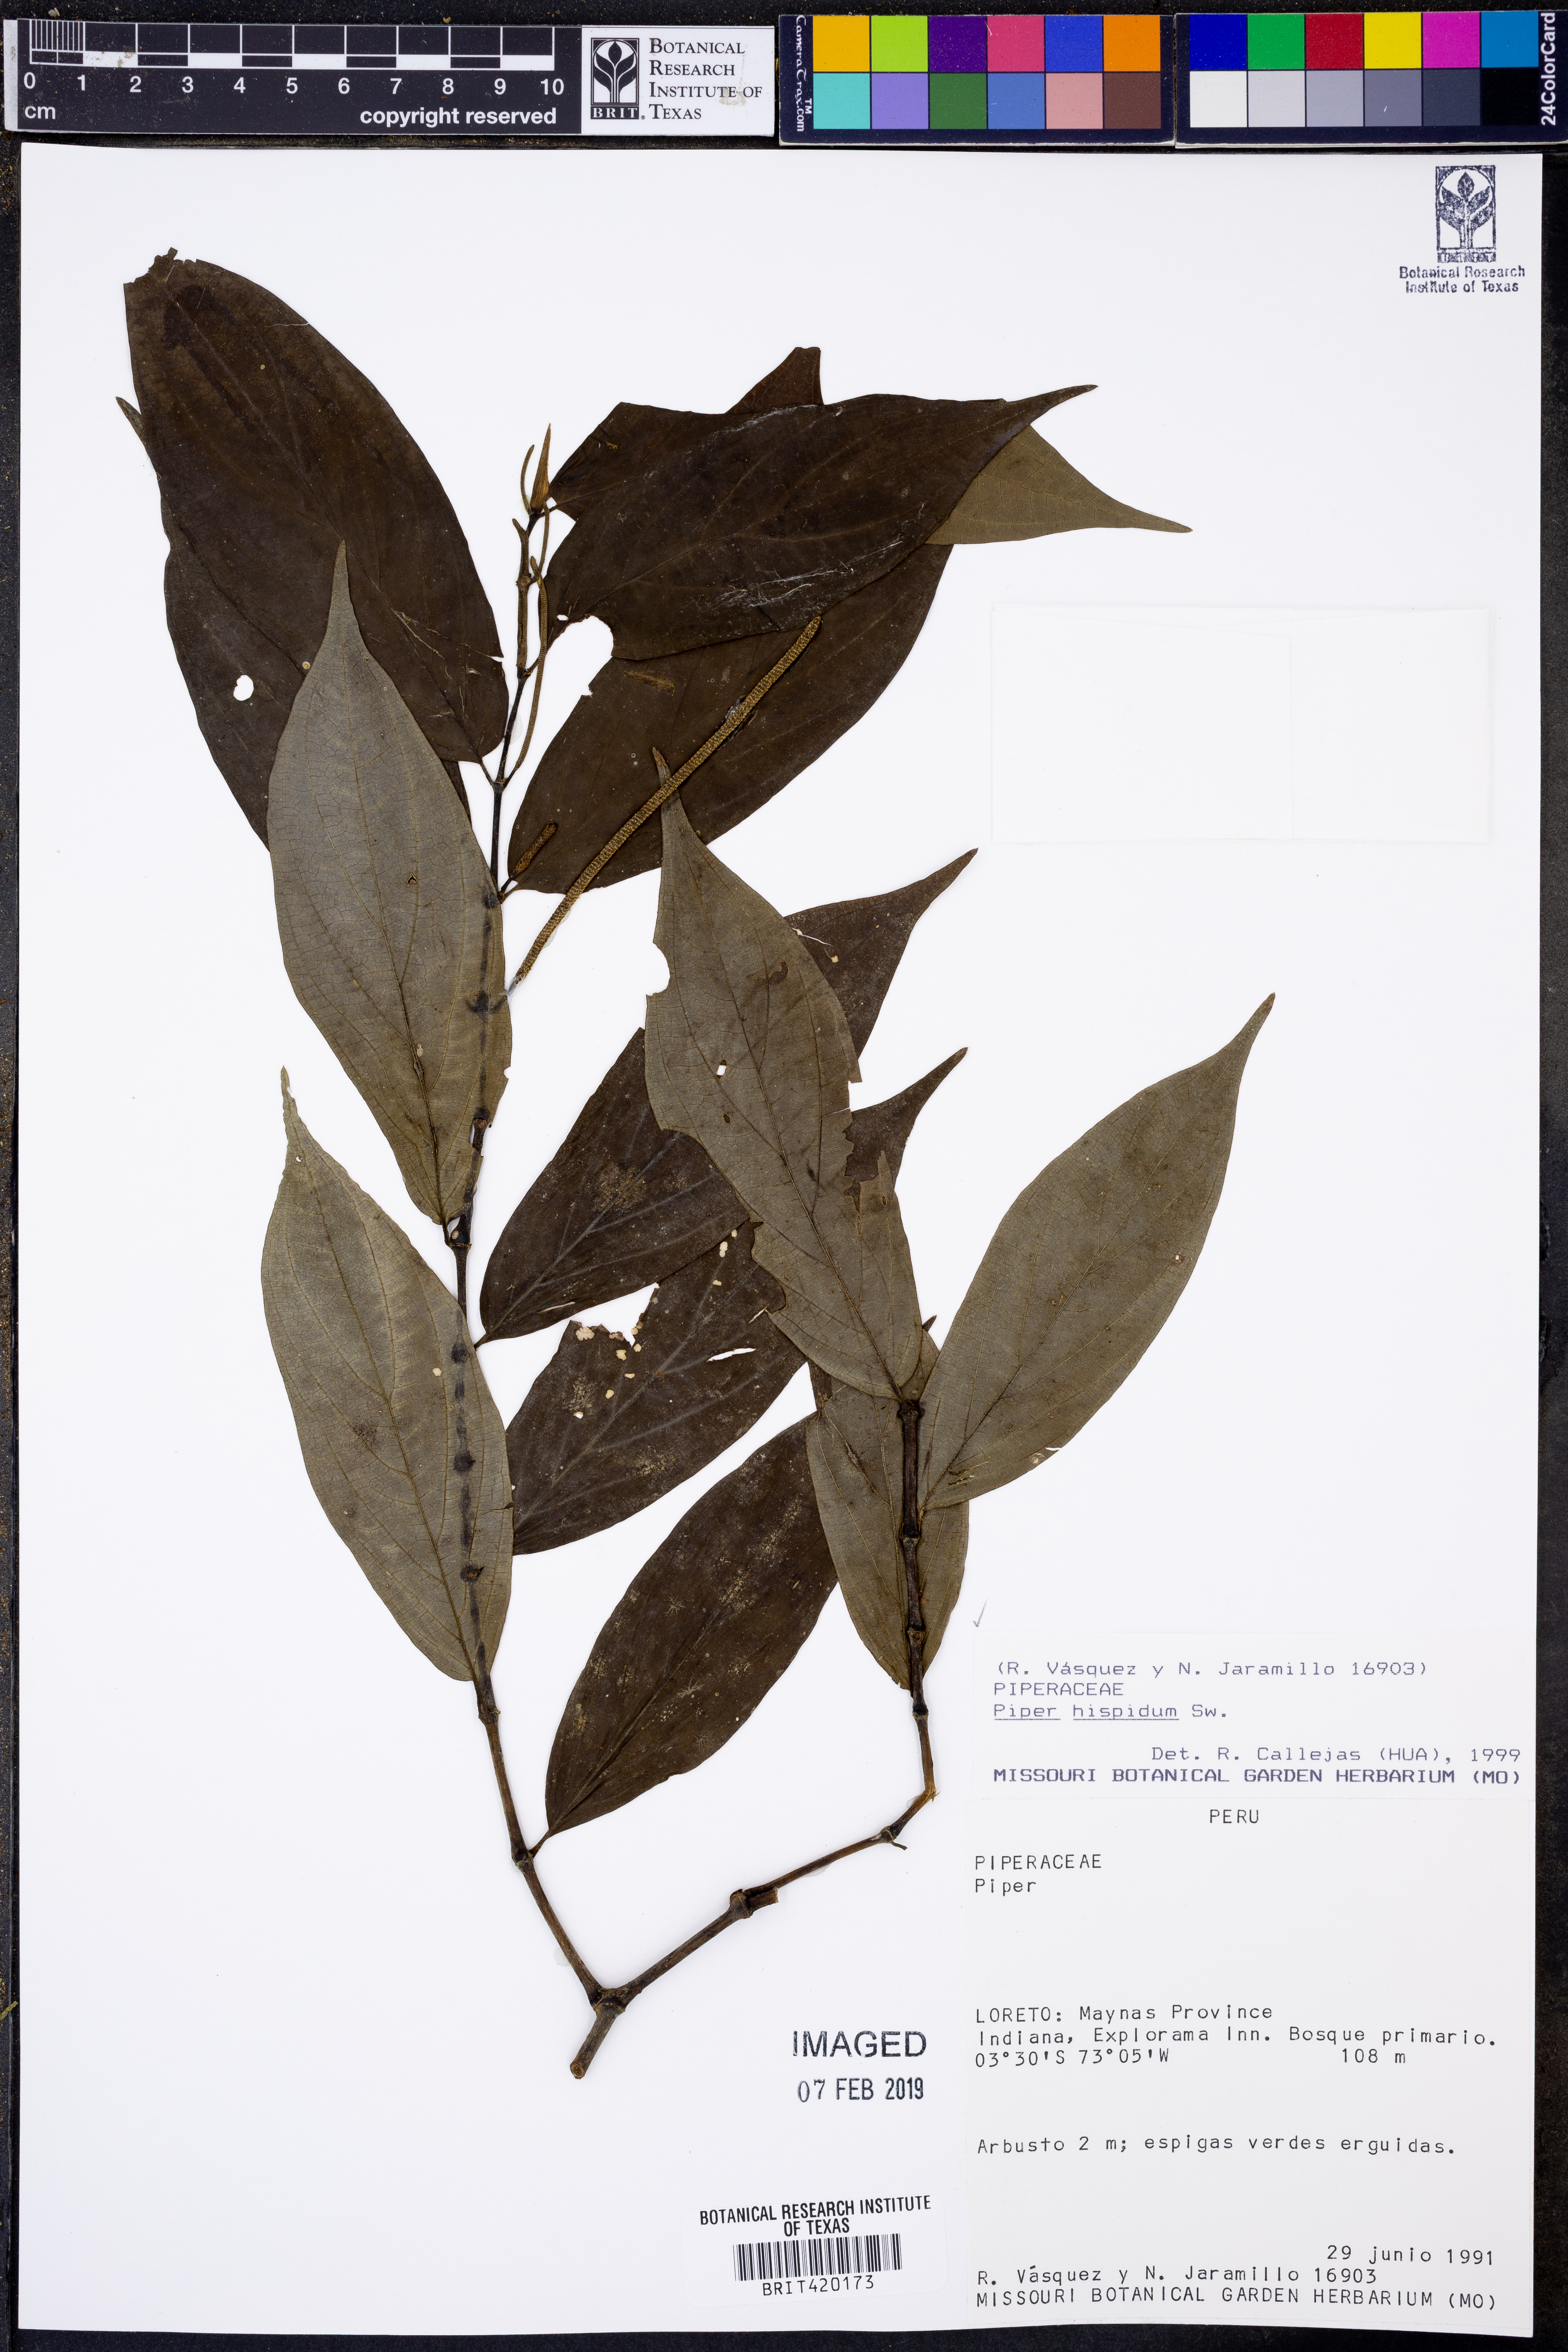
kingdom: Plantae
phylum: Tracheophyta
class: Magnoliopsida
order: Piperales
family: Piperaceae
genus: Piper
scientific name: Piper hispidum
